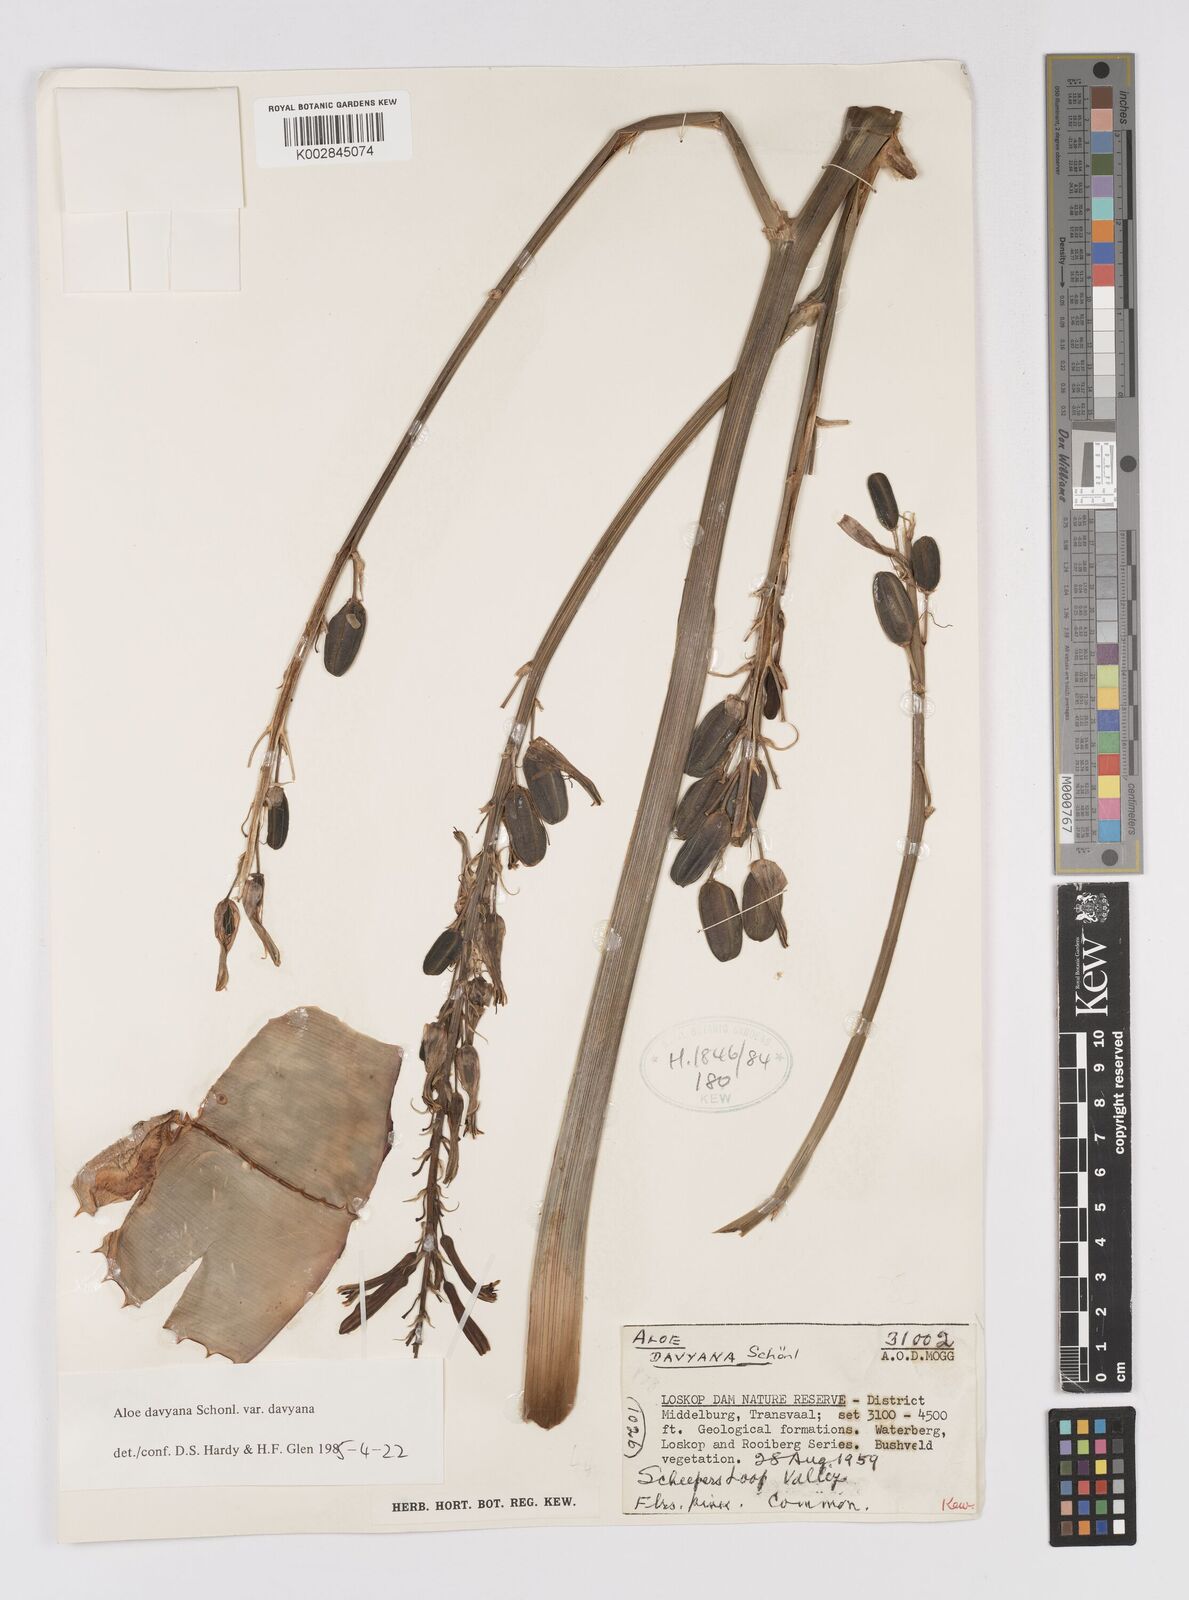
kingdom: Plantae
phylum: Tracheophyta
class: Liliopsida
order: Asparagales
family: Asphodelaceae
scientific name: Asphodelaceae
